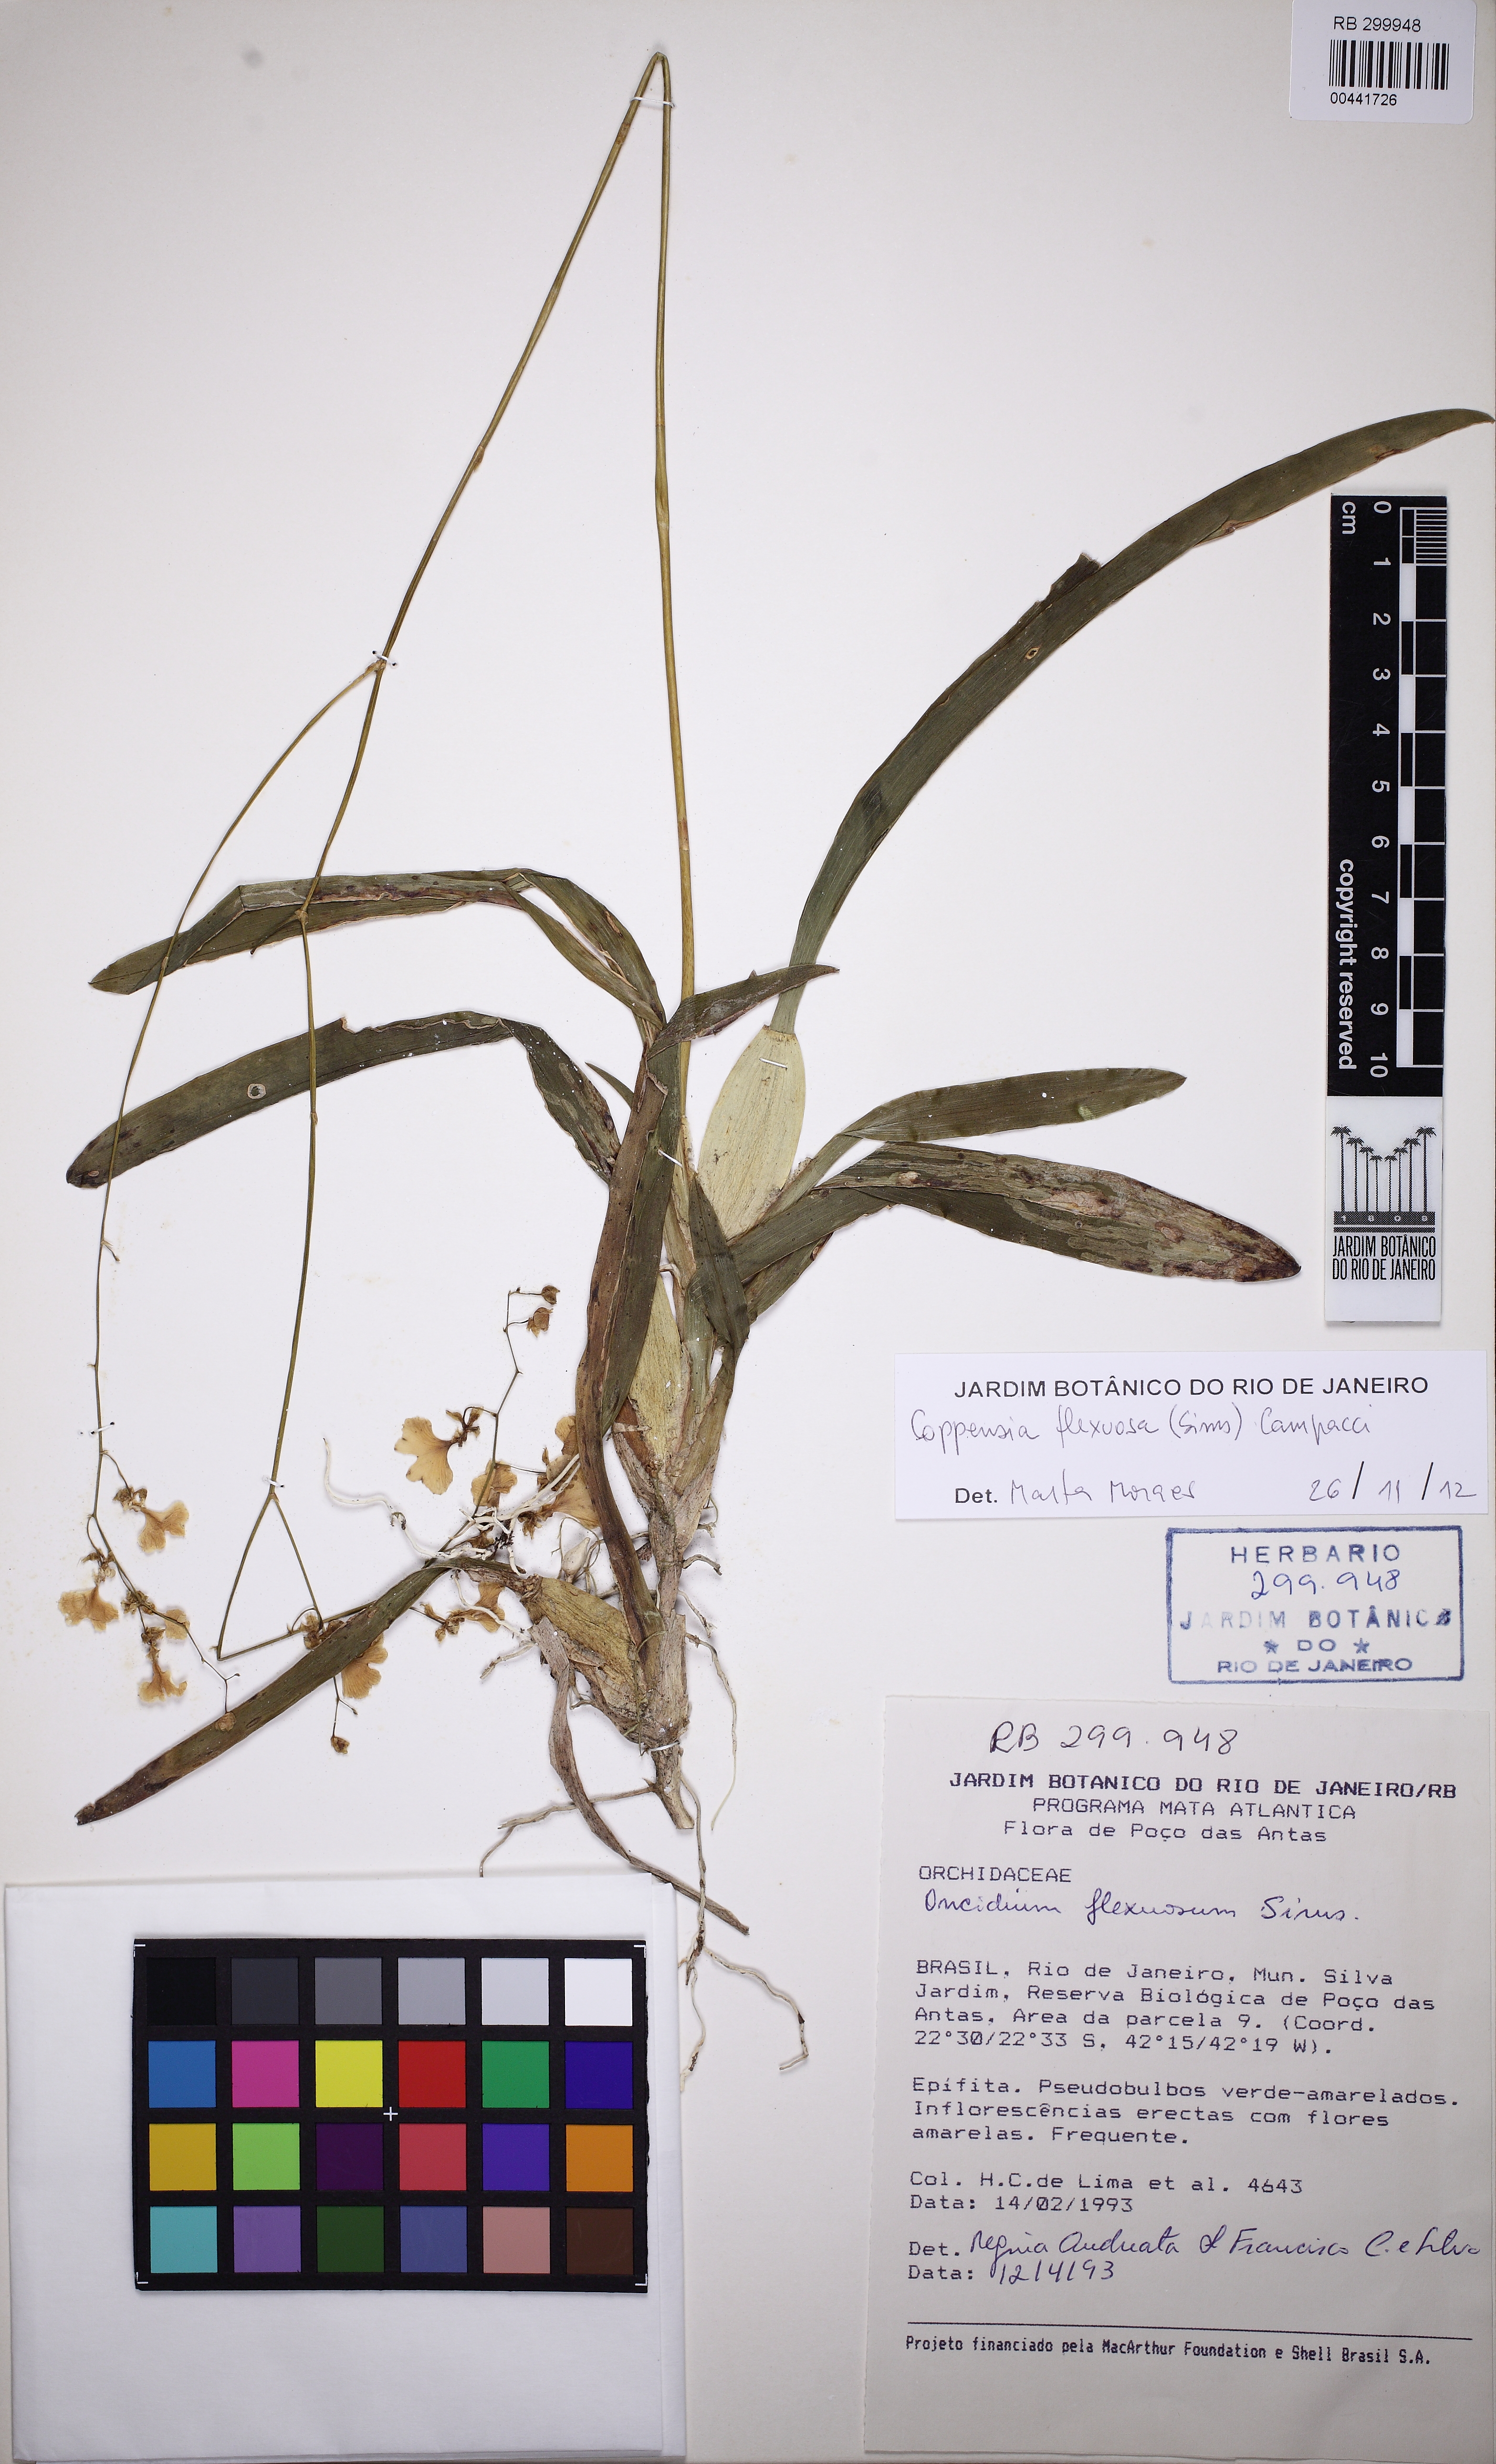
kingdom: Plantae
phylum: Tracheophyta
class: Liliopsida
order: Asparagales
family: Orchidaceae
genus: Gomesa
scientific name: Gomesa flexuosa
